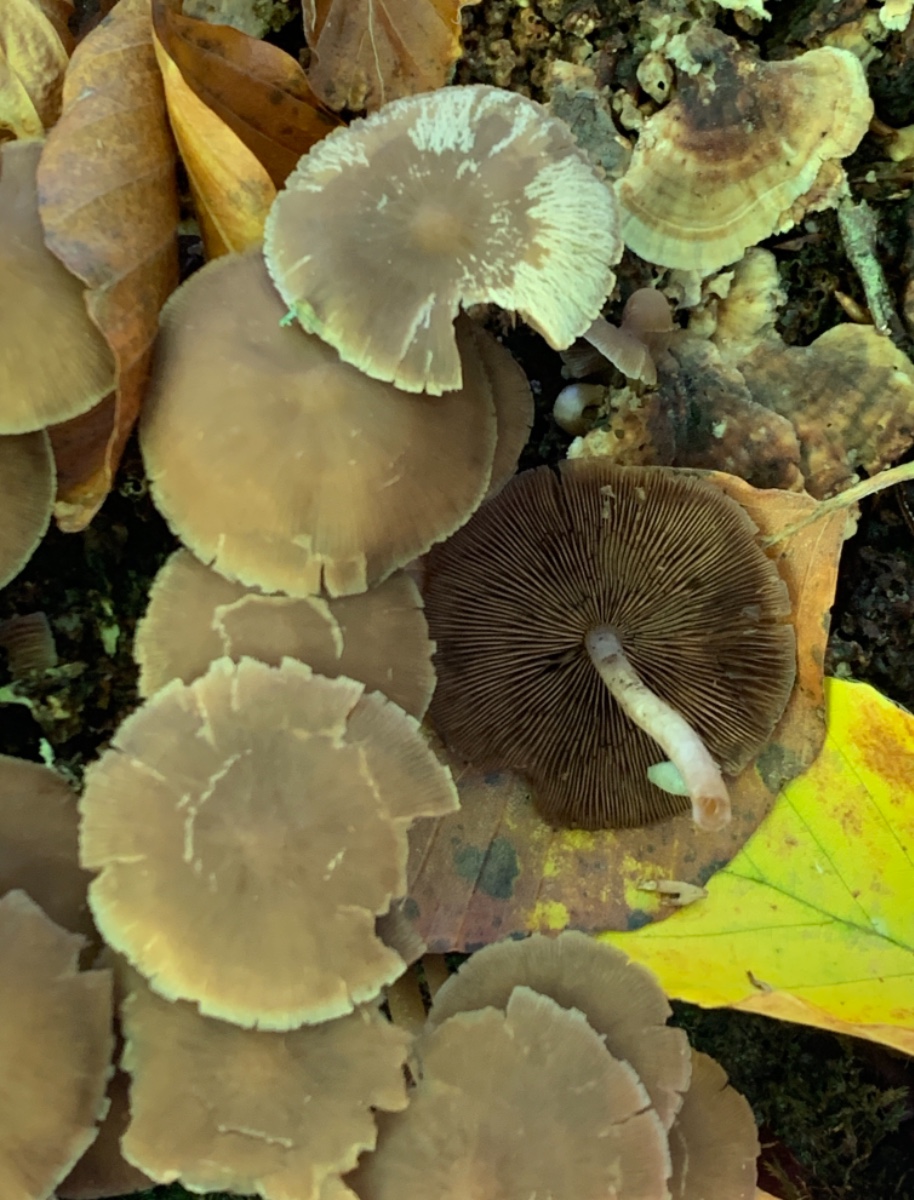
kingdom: Fungi
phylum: Basidiomycota
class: Agaricomycetes
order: Agaricales
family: Psathyrellaceae
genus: Psathyrella
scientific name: Psathyrella piluliformis
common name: lysstokket mørkhat
